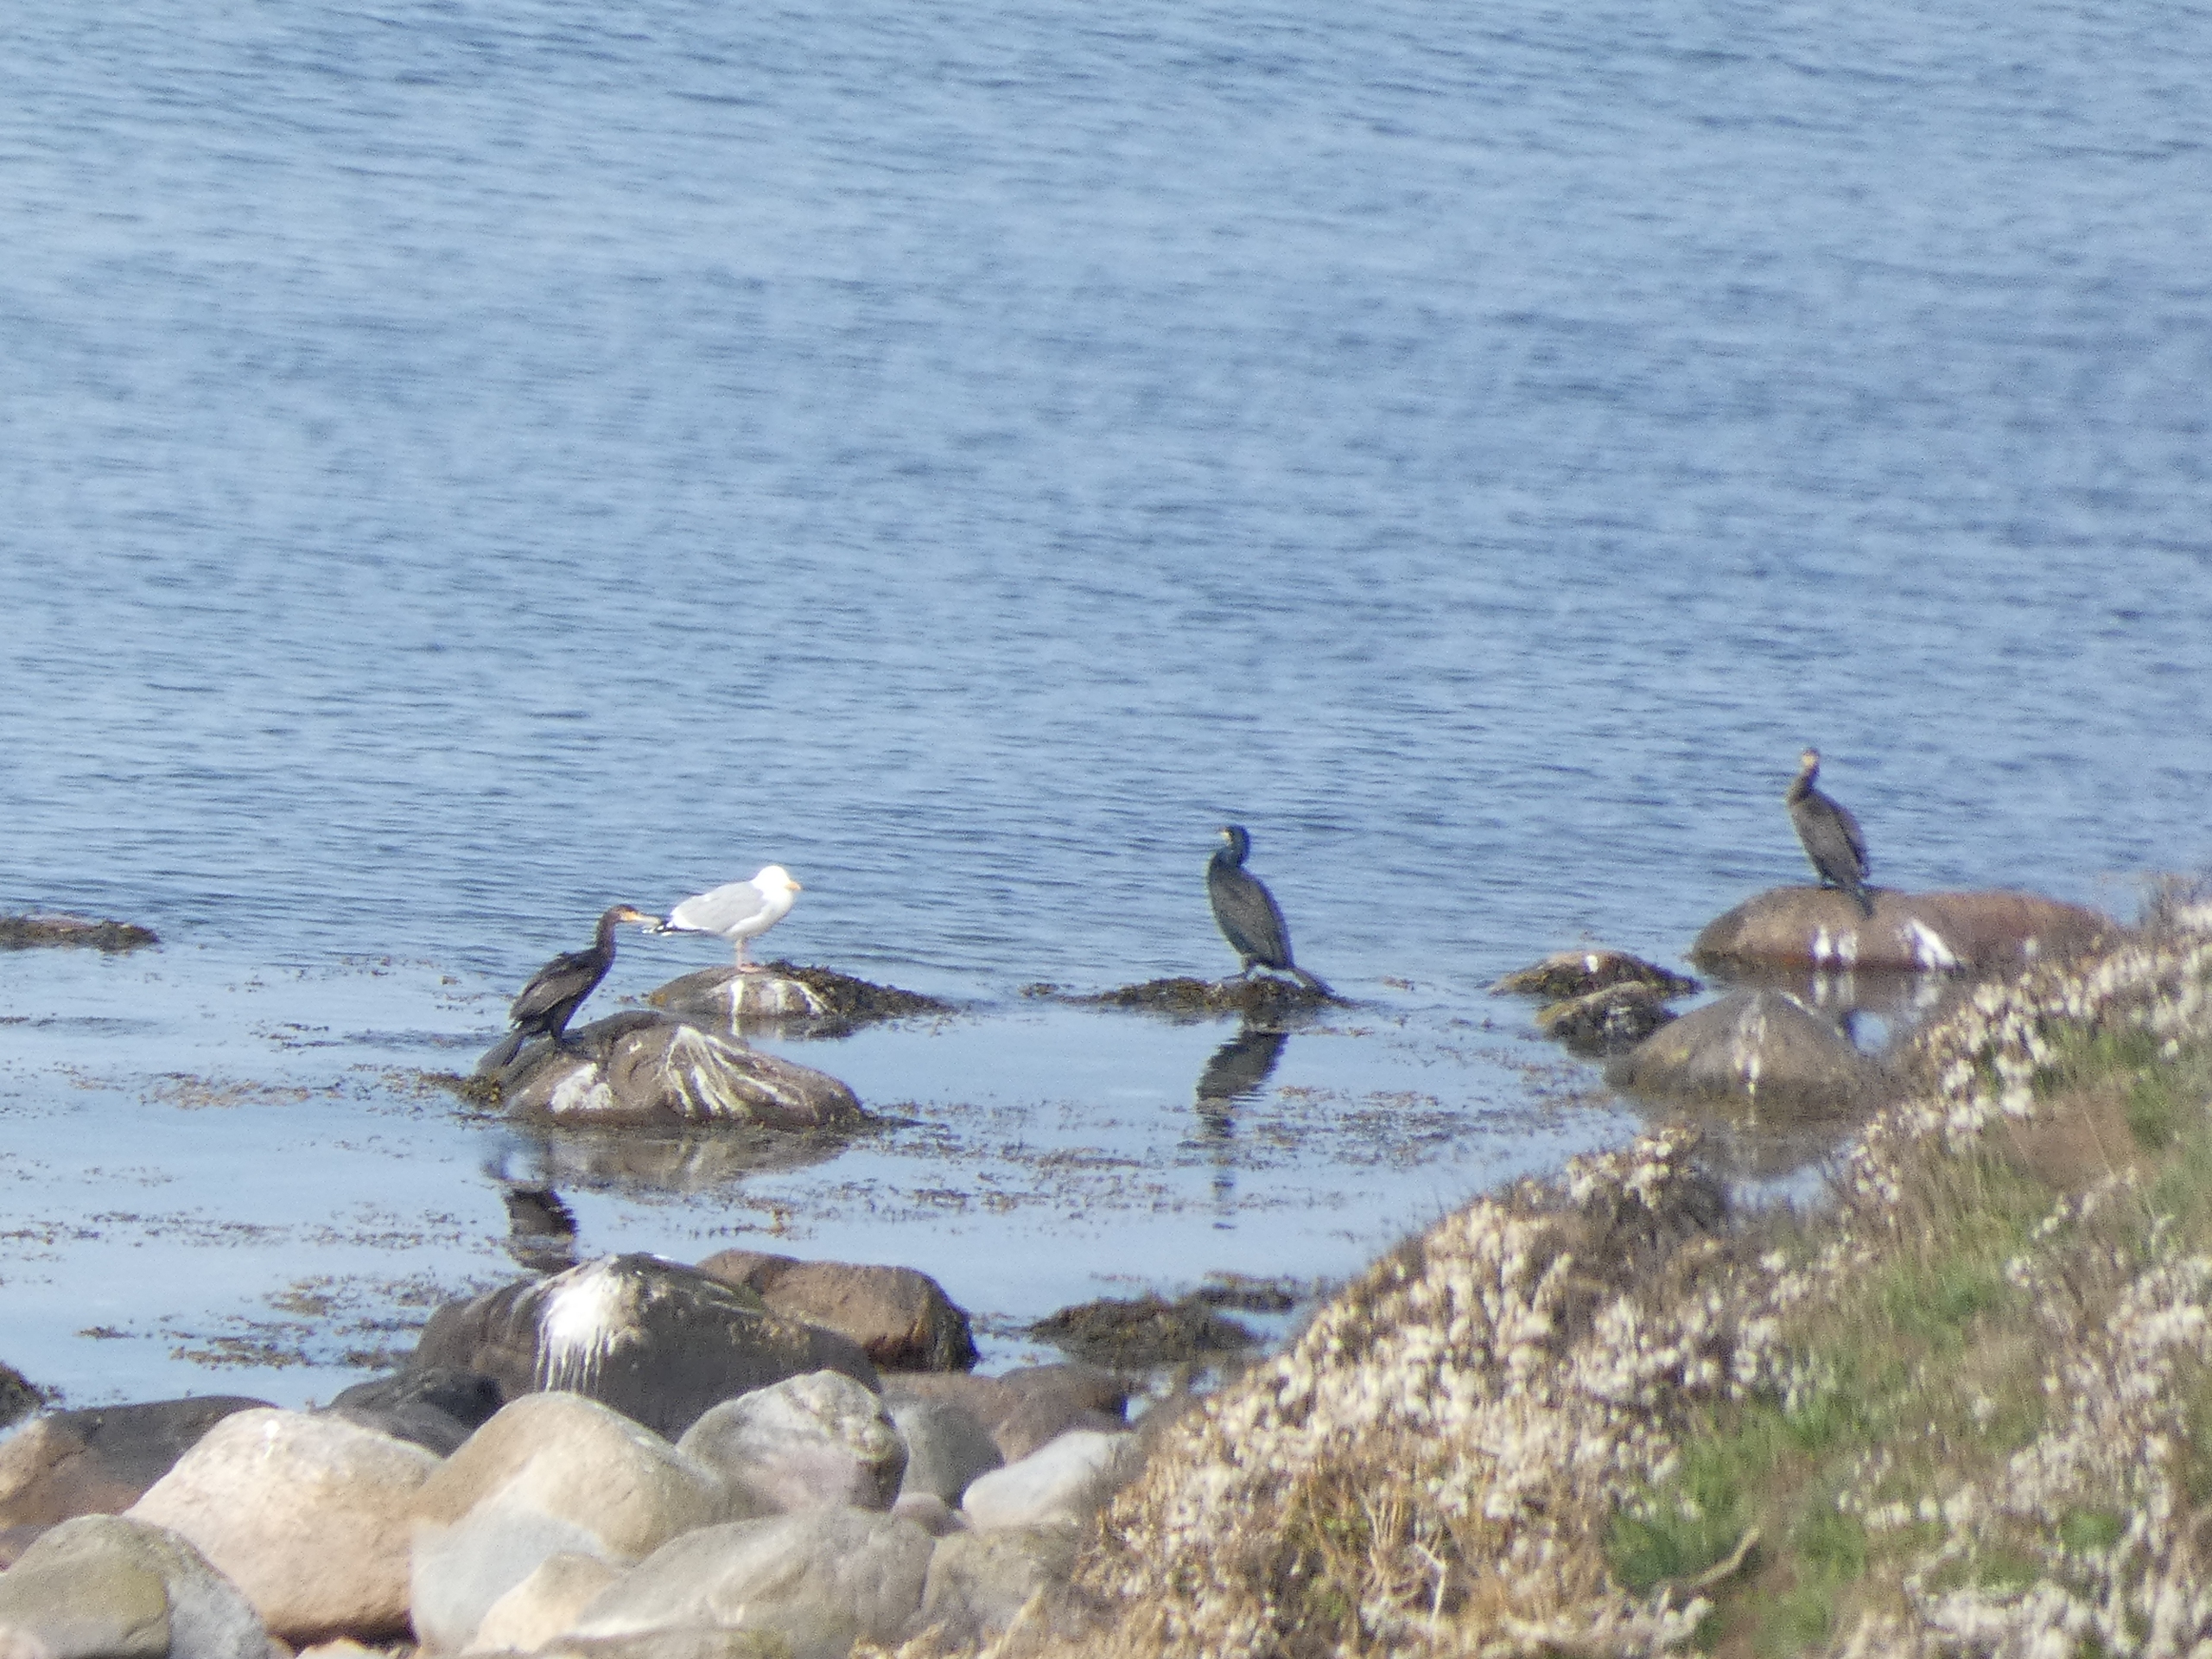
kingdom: Animalia
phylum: Chordata
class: Aves
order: Suliformes
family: Phalacrocoracidae
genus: Phalacrocorax
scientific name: Phalacrocorax carbo
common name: Skarv
